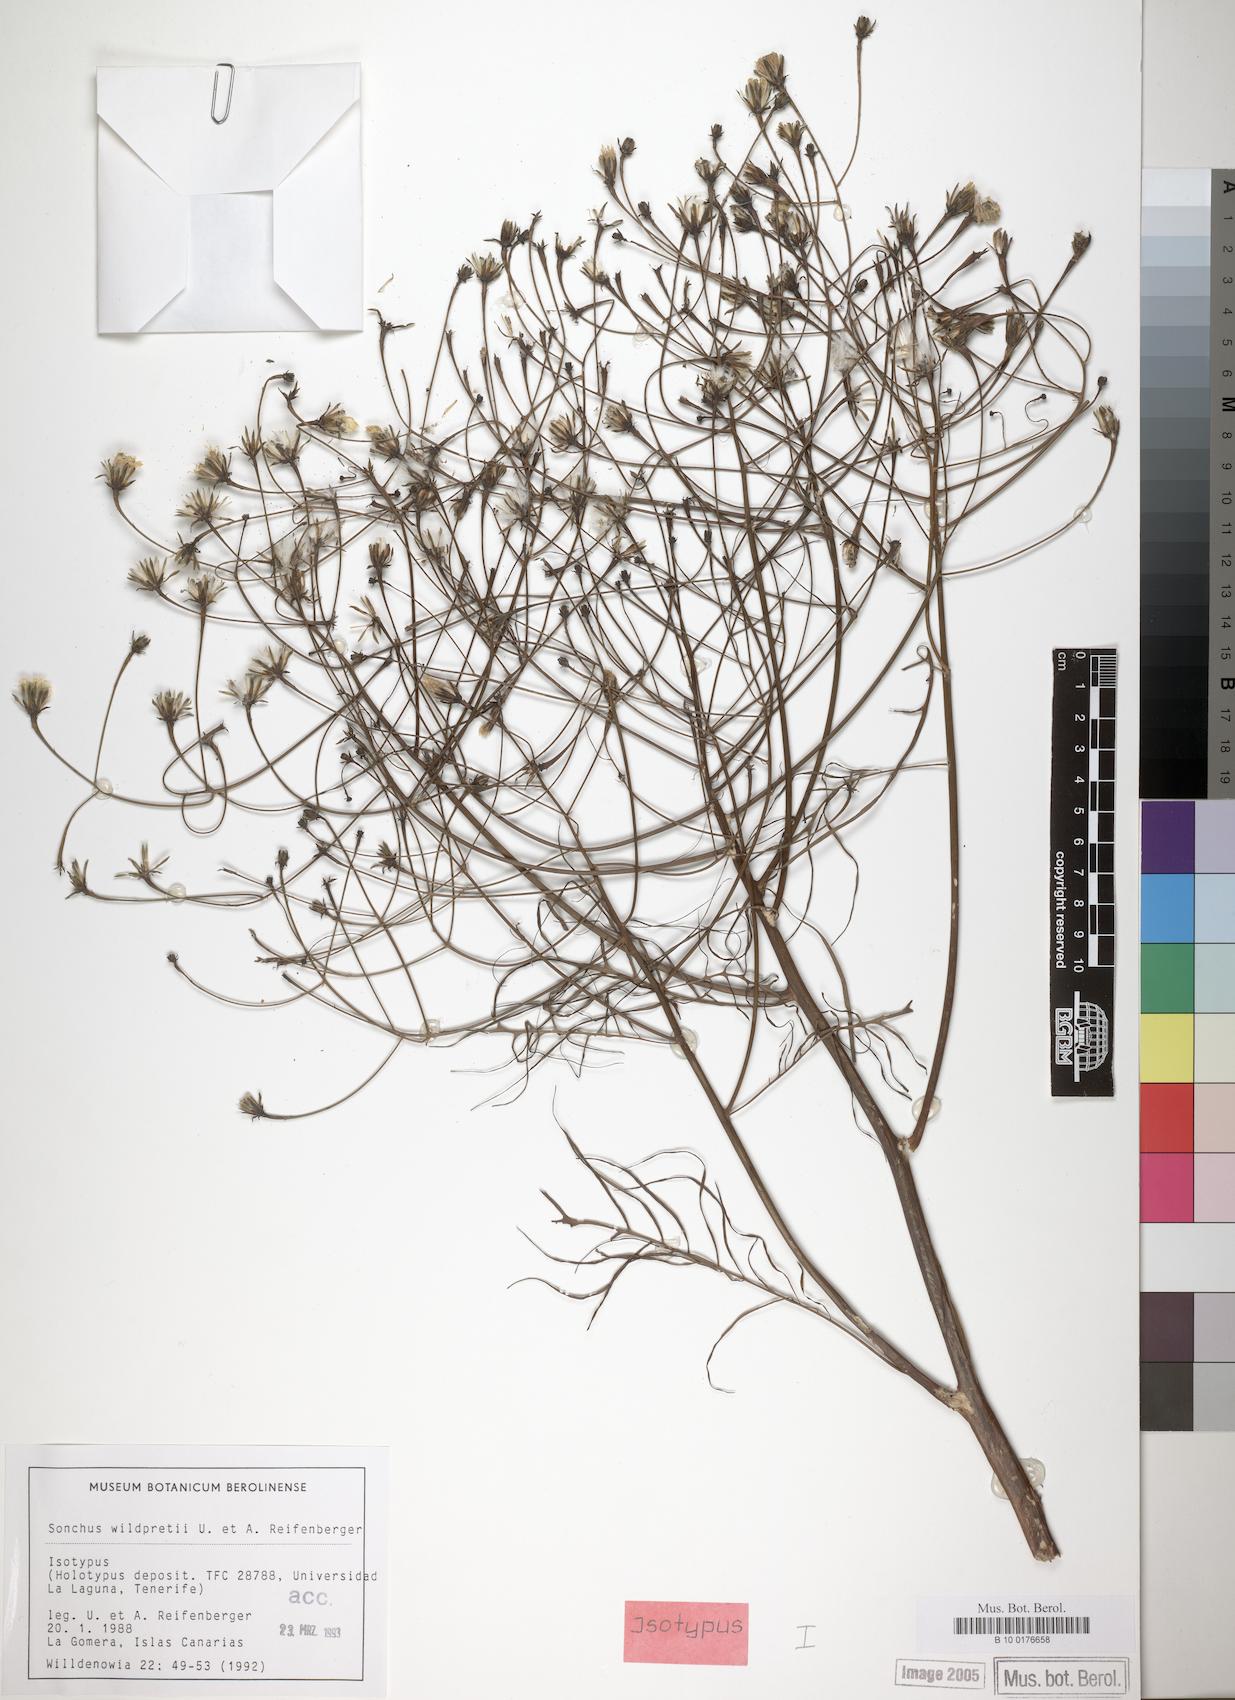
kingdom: Plantae
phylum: Tracheophyta
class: Magnoliopsida
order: Asterales
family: Asteraceae
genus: Sonchus
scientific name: Sonchus wildpretii
